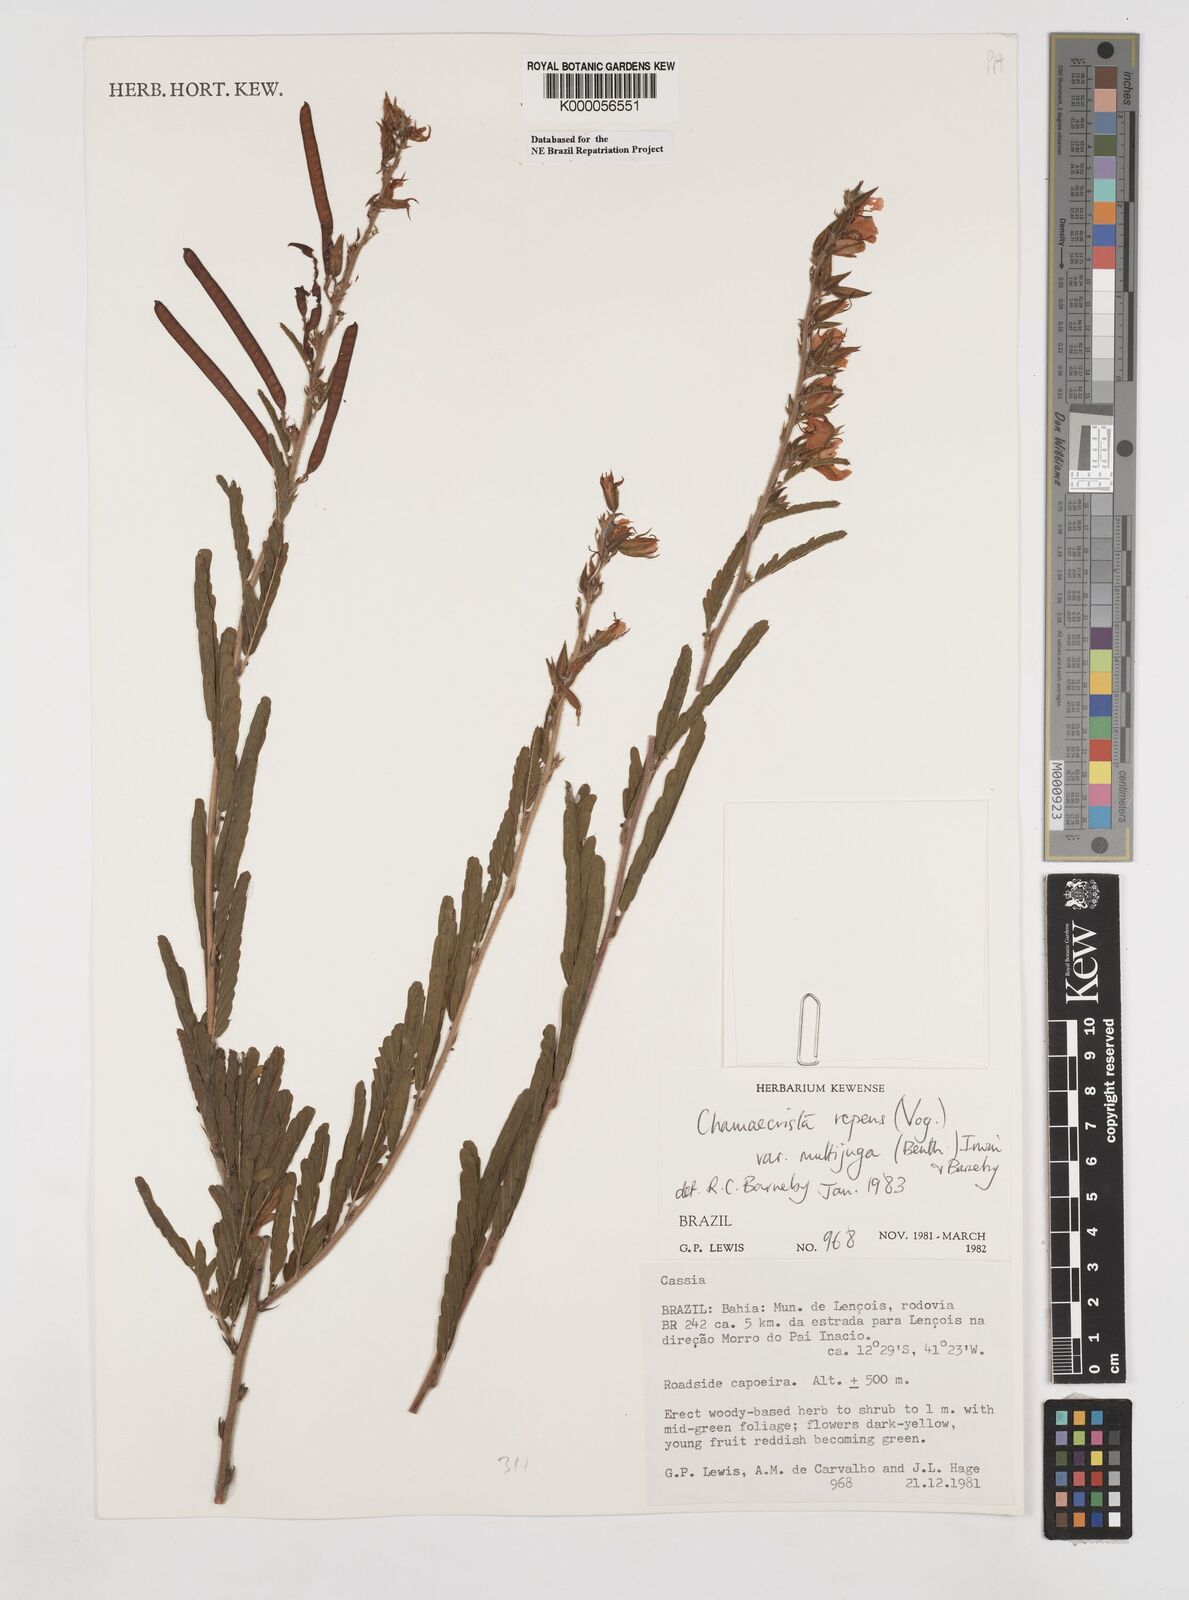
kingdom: Plantae
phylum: Tracheophyta
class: Magnoliopsida
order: Fabales
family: Fabaceae
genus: Chamaecrista
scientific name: Chamaecrista repens
